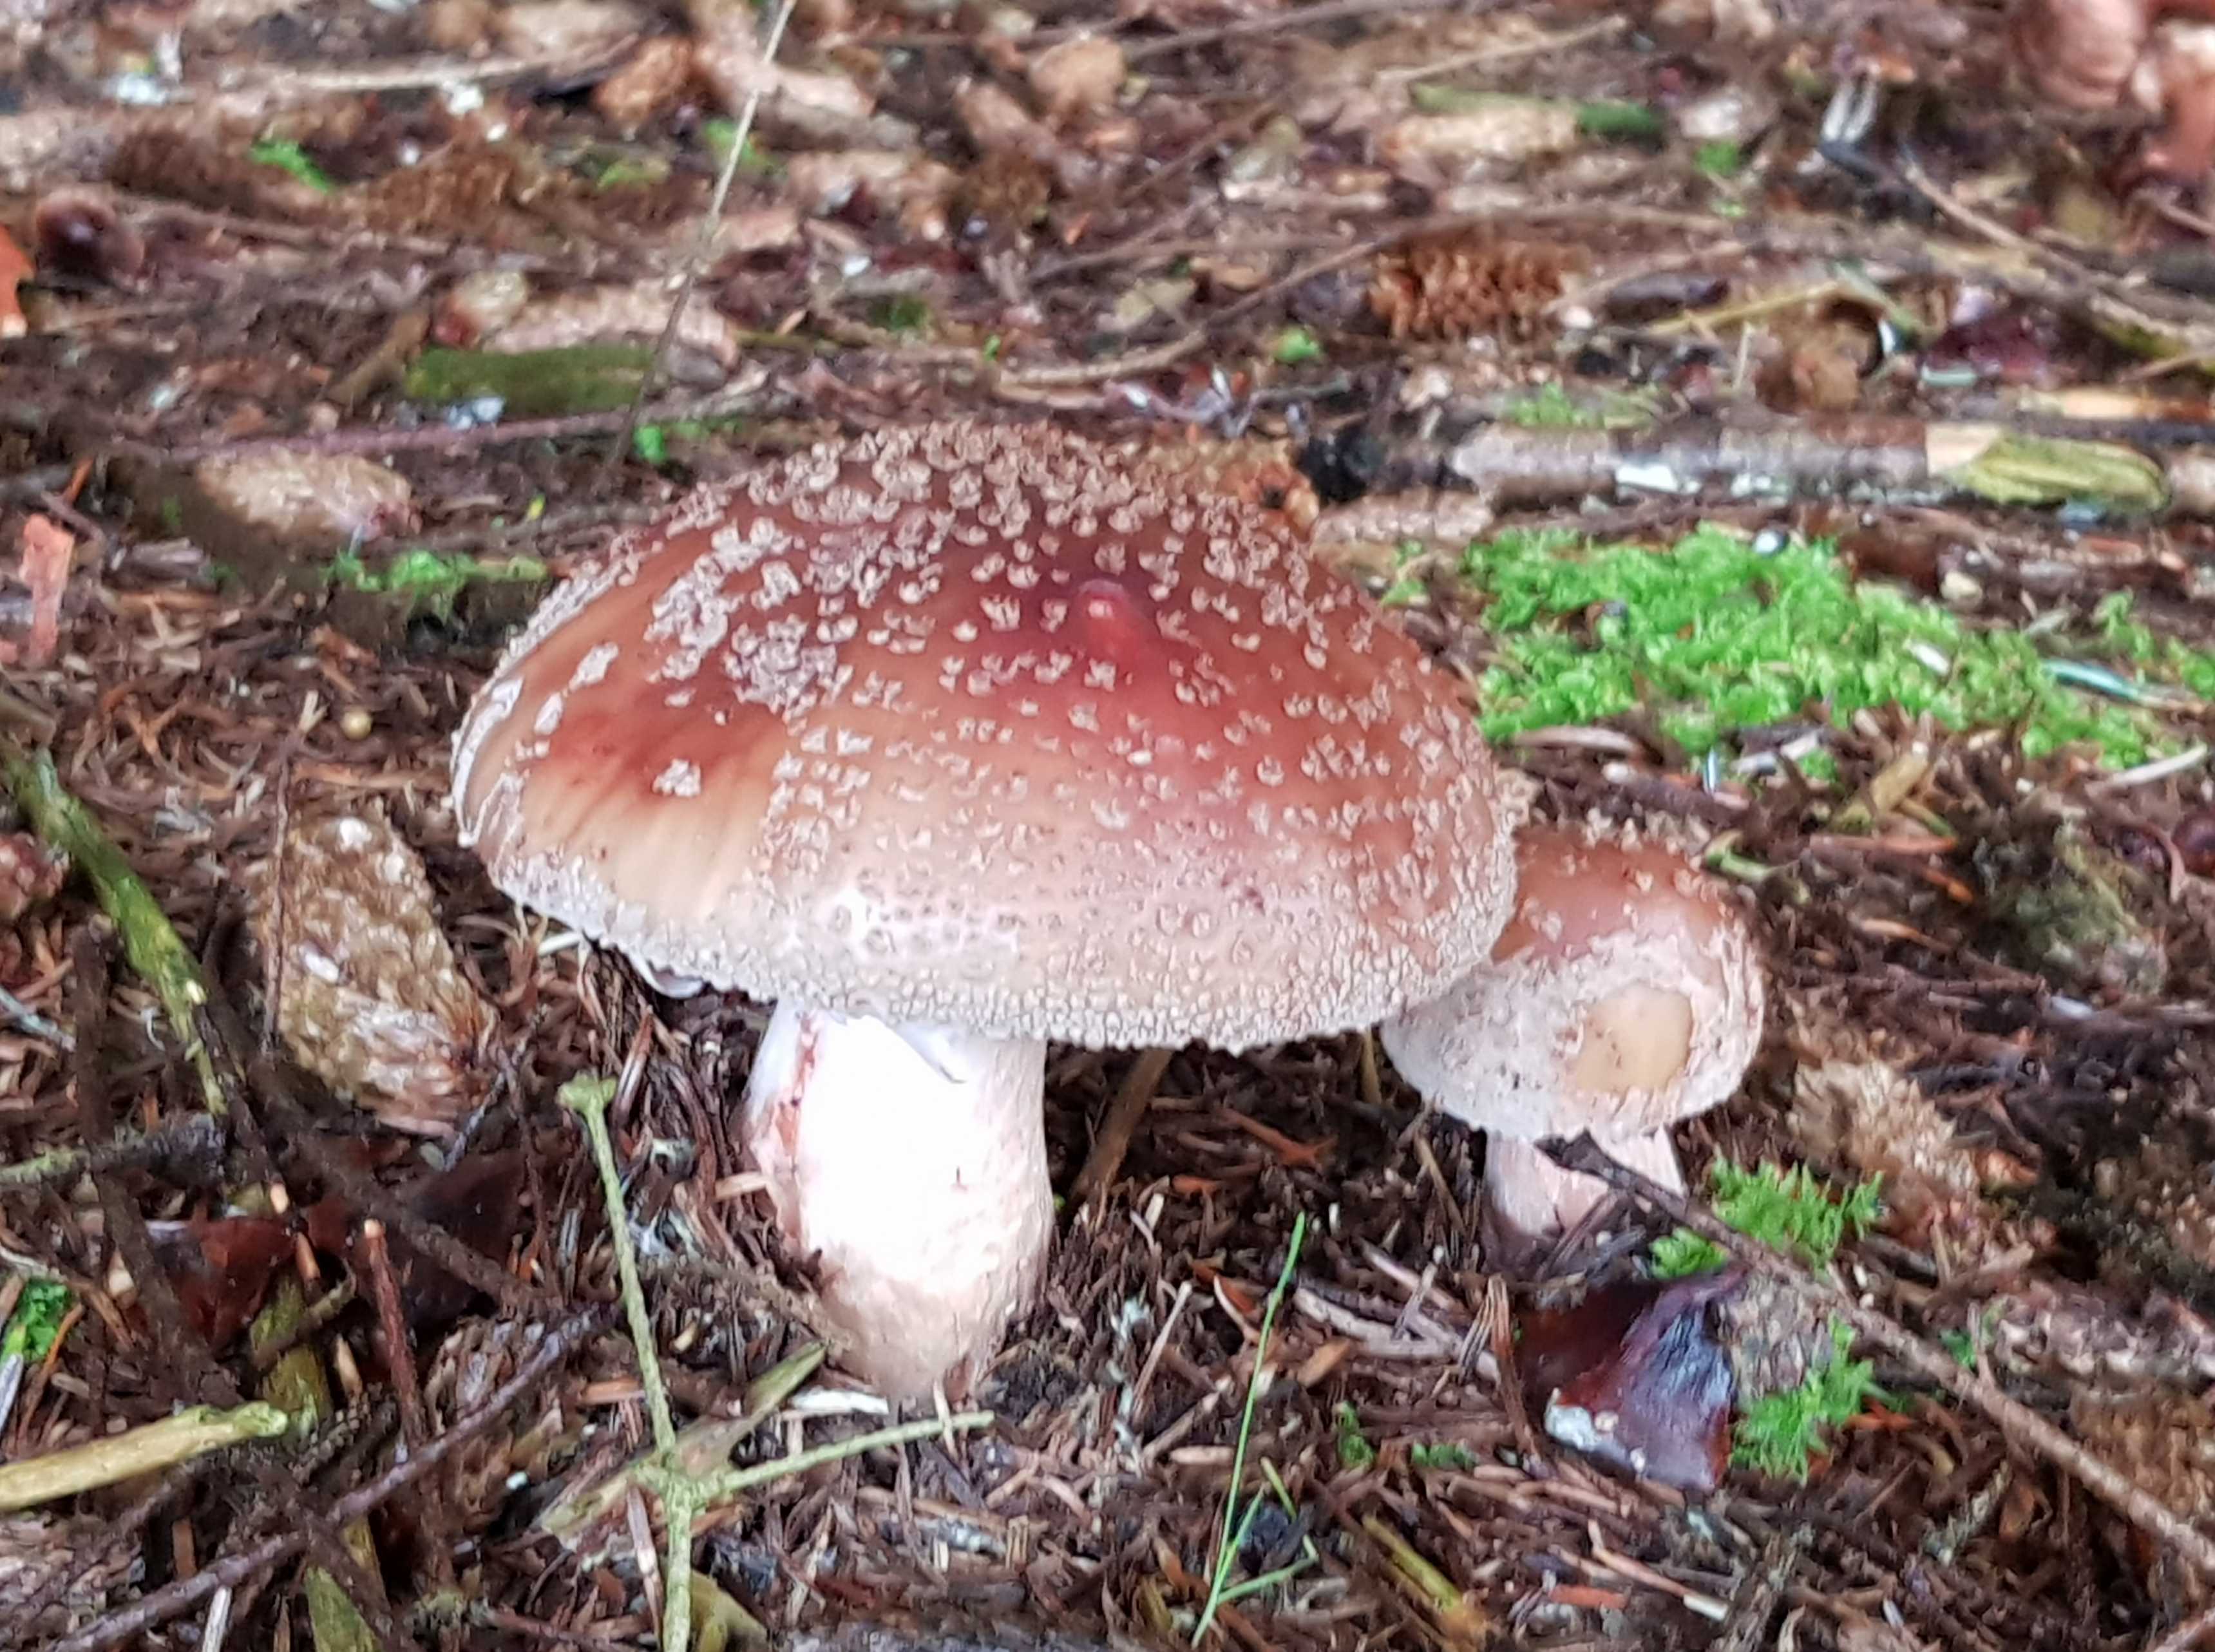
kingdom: Fungi
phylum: Basidiomycota
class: Agaricomycetes
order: Agaricales
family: Amanitaceae
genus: Amanita
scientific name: Amanita rubescens
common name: rødmende fluesvamp
